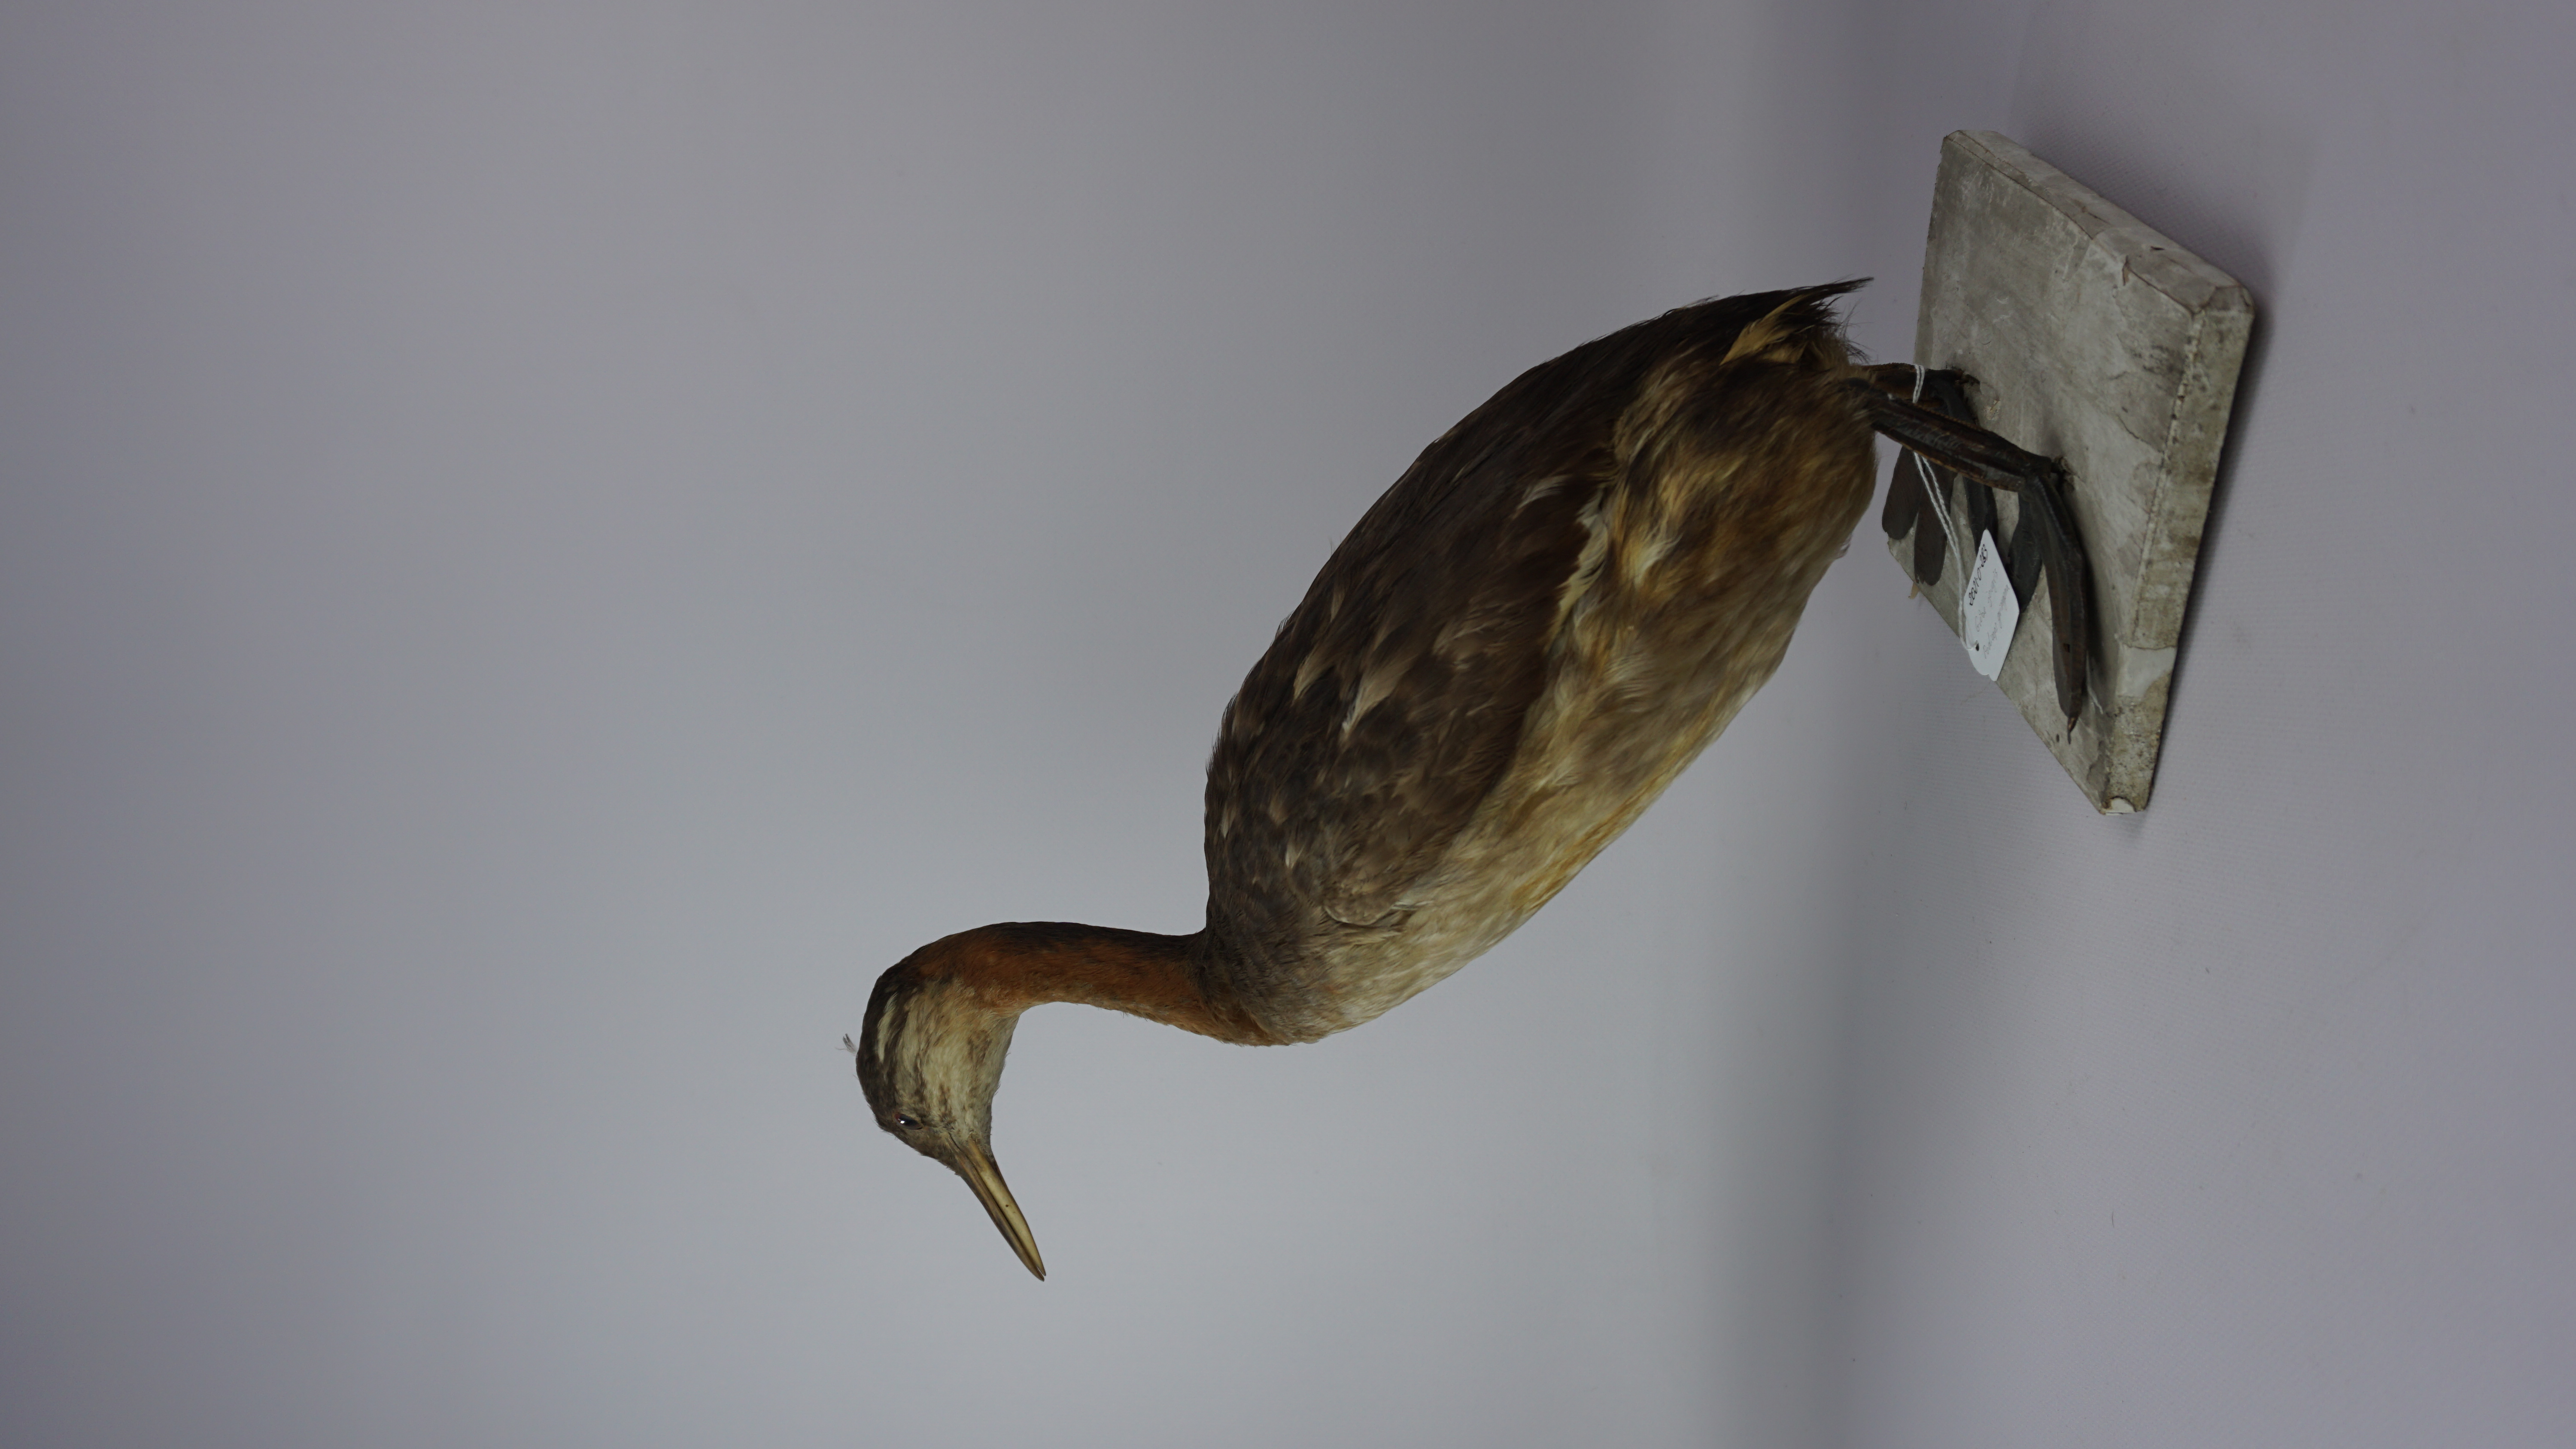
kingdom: Animalia
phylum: Chordata
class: Aves
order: Podicipediformes
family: Podicipedidae
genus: Podiceps
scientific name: Podiceps grisegena
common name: Red-necked grebe
